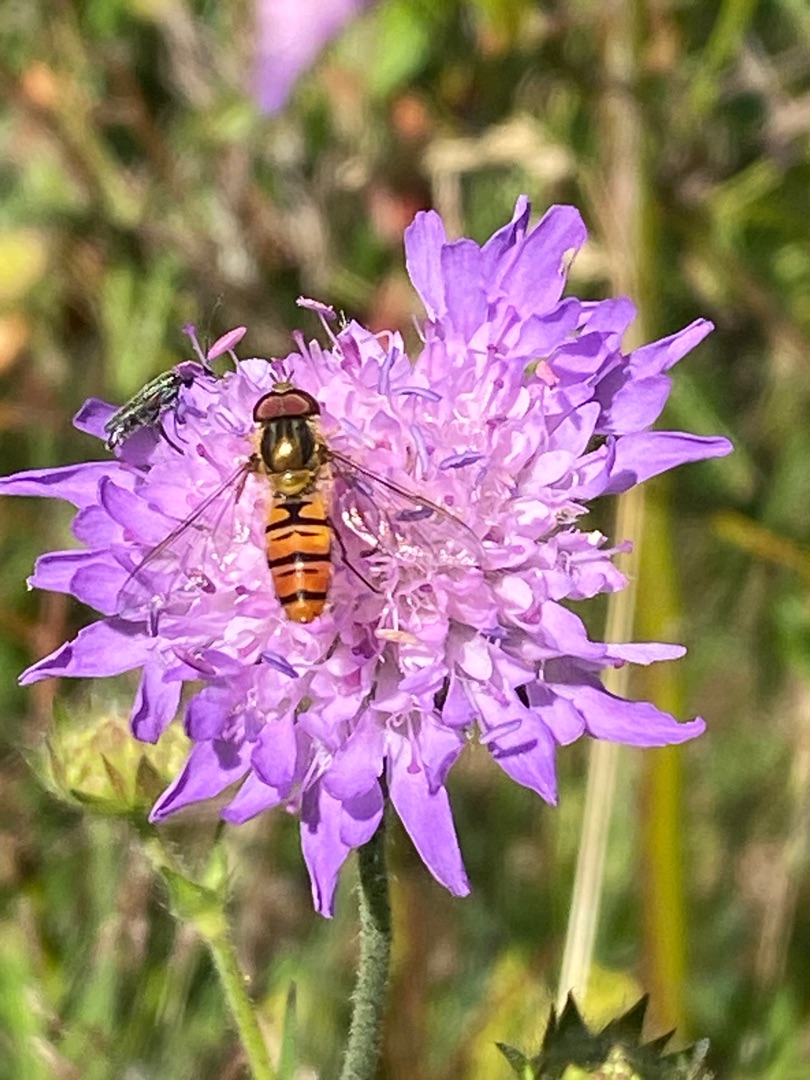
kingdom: Animalia
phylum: Arthropoda
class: Insecta
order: Diptera
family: Syrphidae
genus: Episyrphus
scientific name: Episyrphus balteatus
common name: Dobbeltbåndet svirreflue
